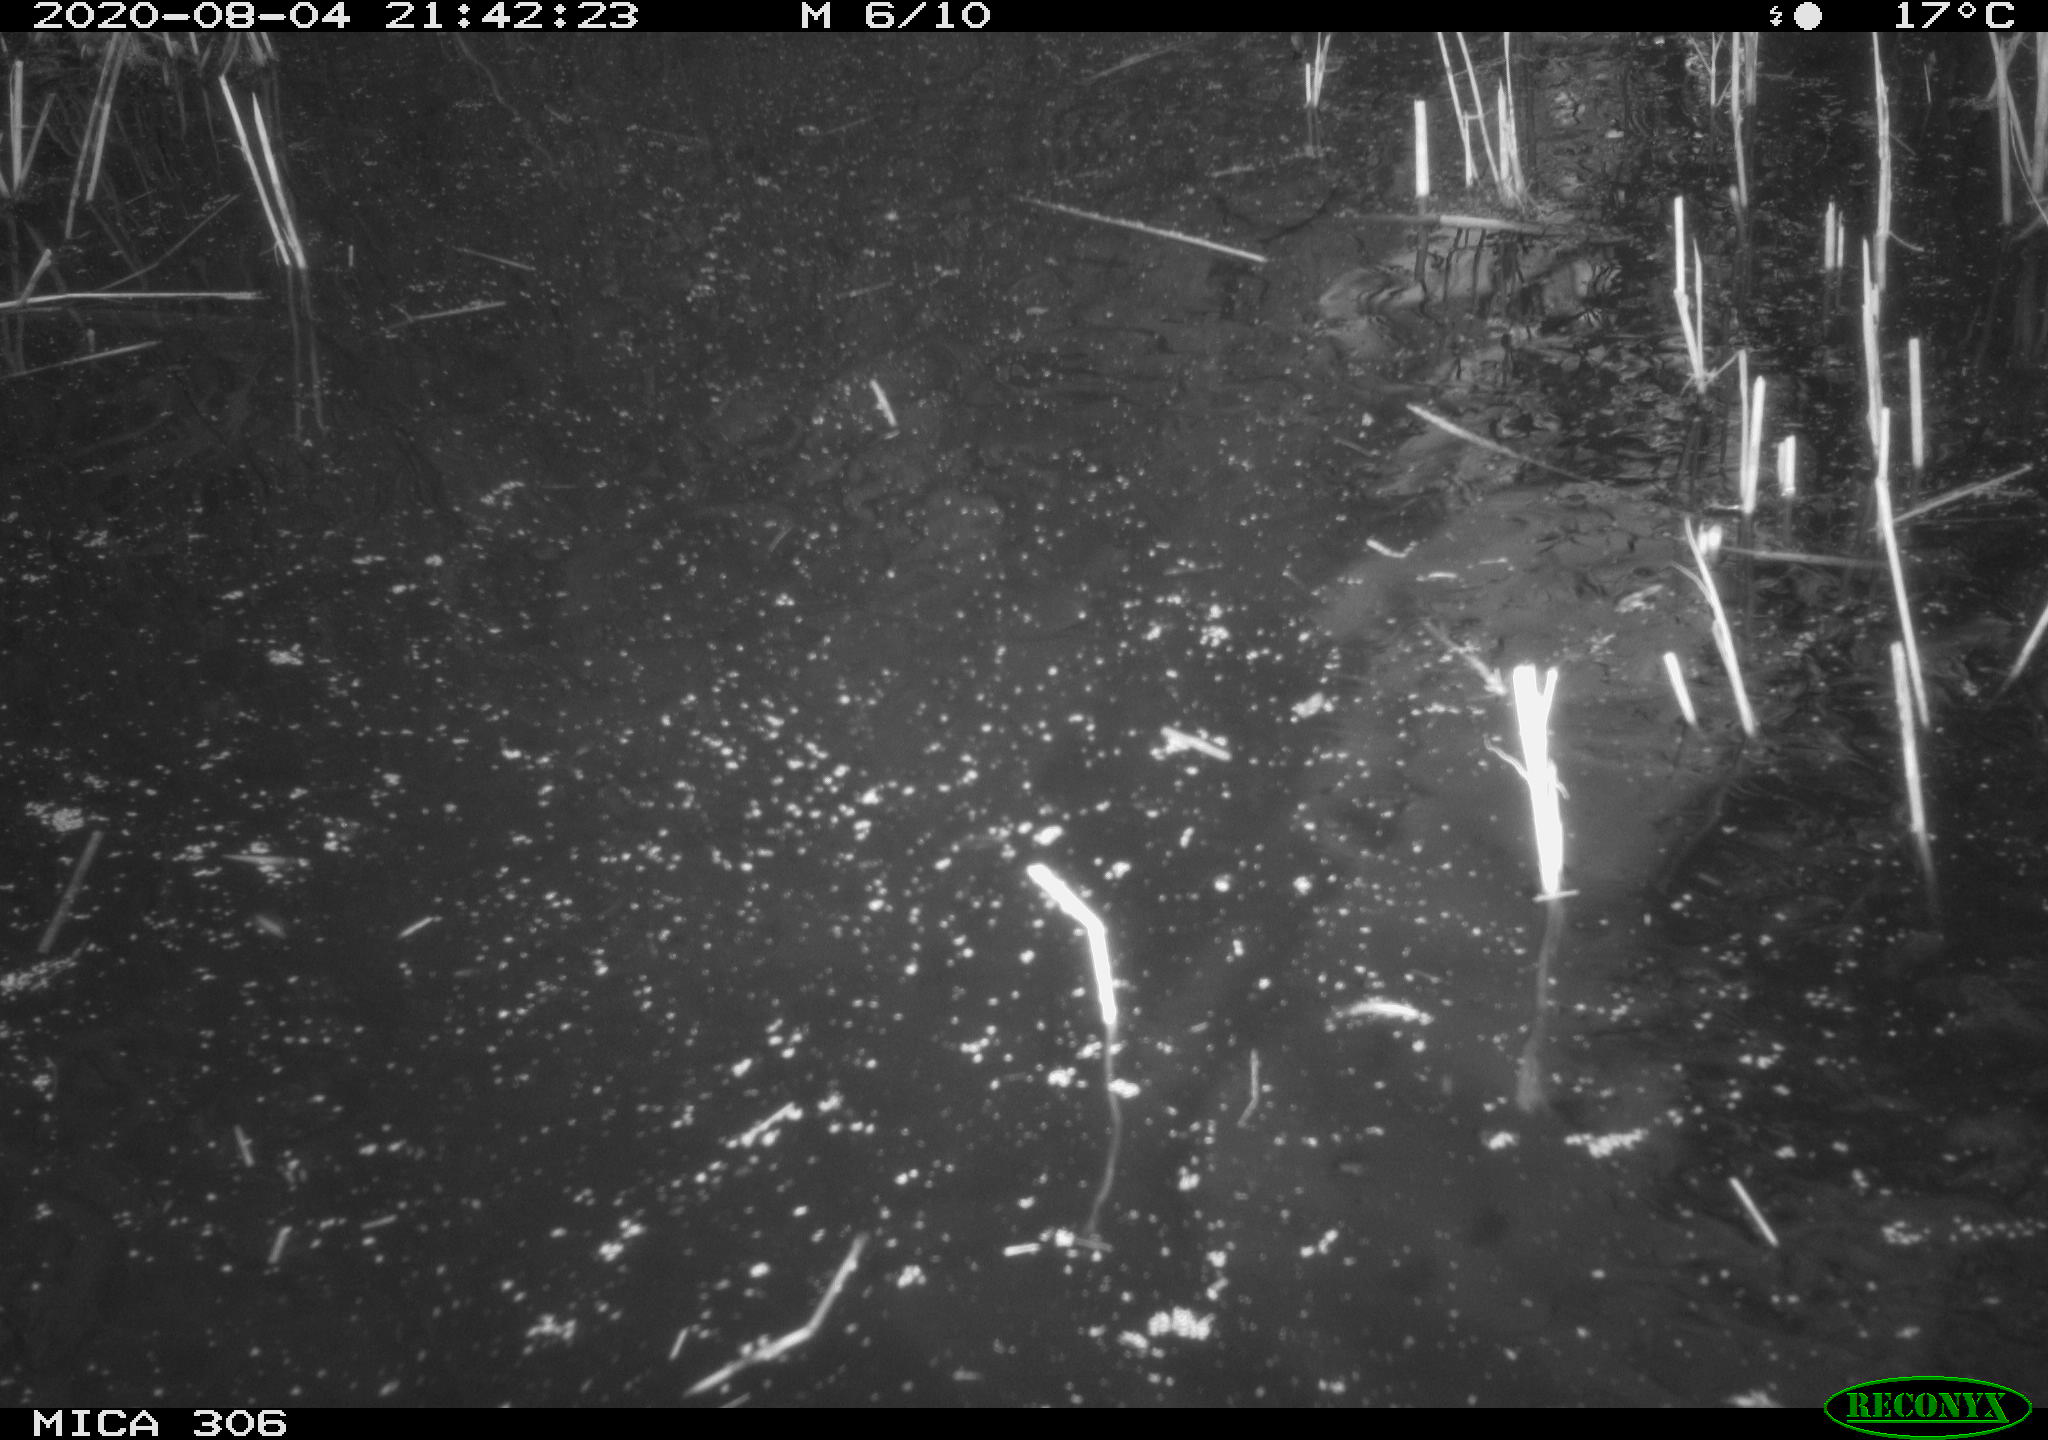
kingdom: Animalia
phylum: Chordata
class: Aves
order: Anseriformes
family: Anatidae
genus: Anas
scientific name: Anas platyrhynchos
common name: Mallard
